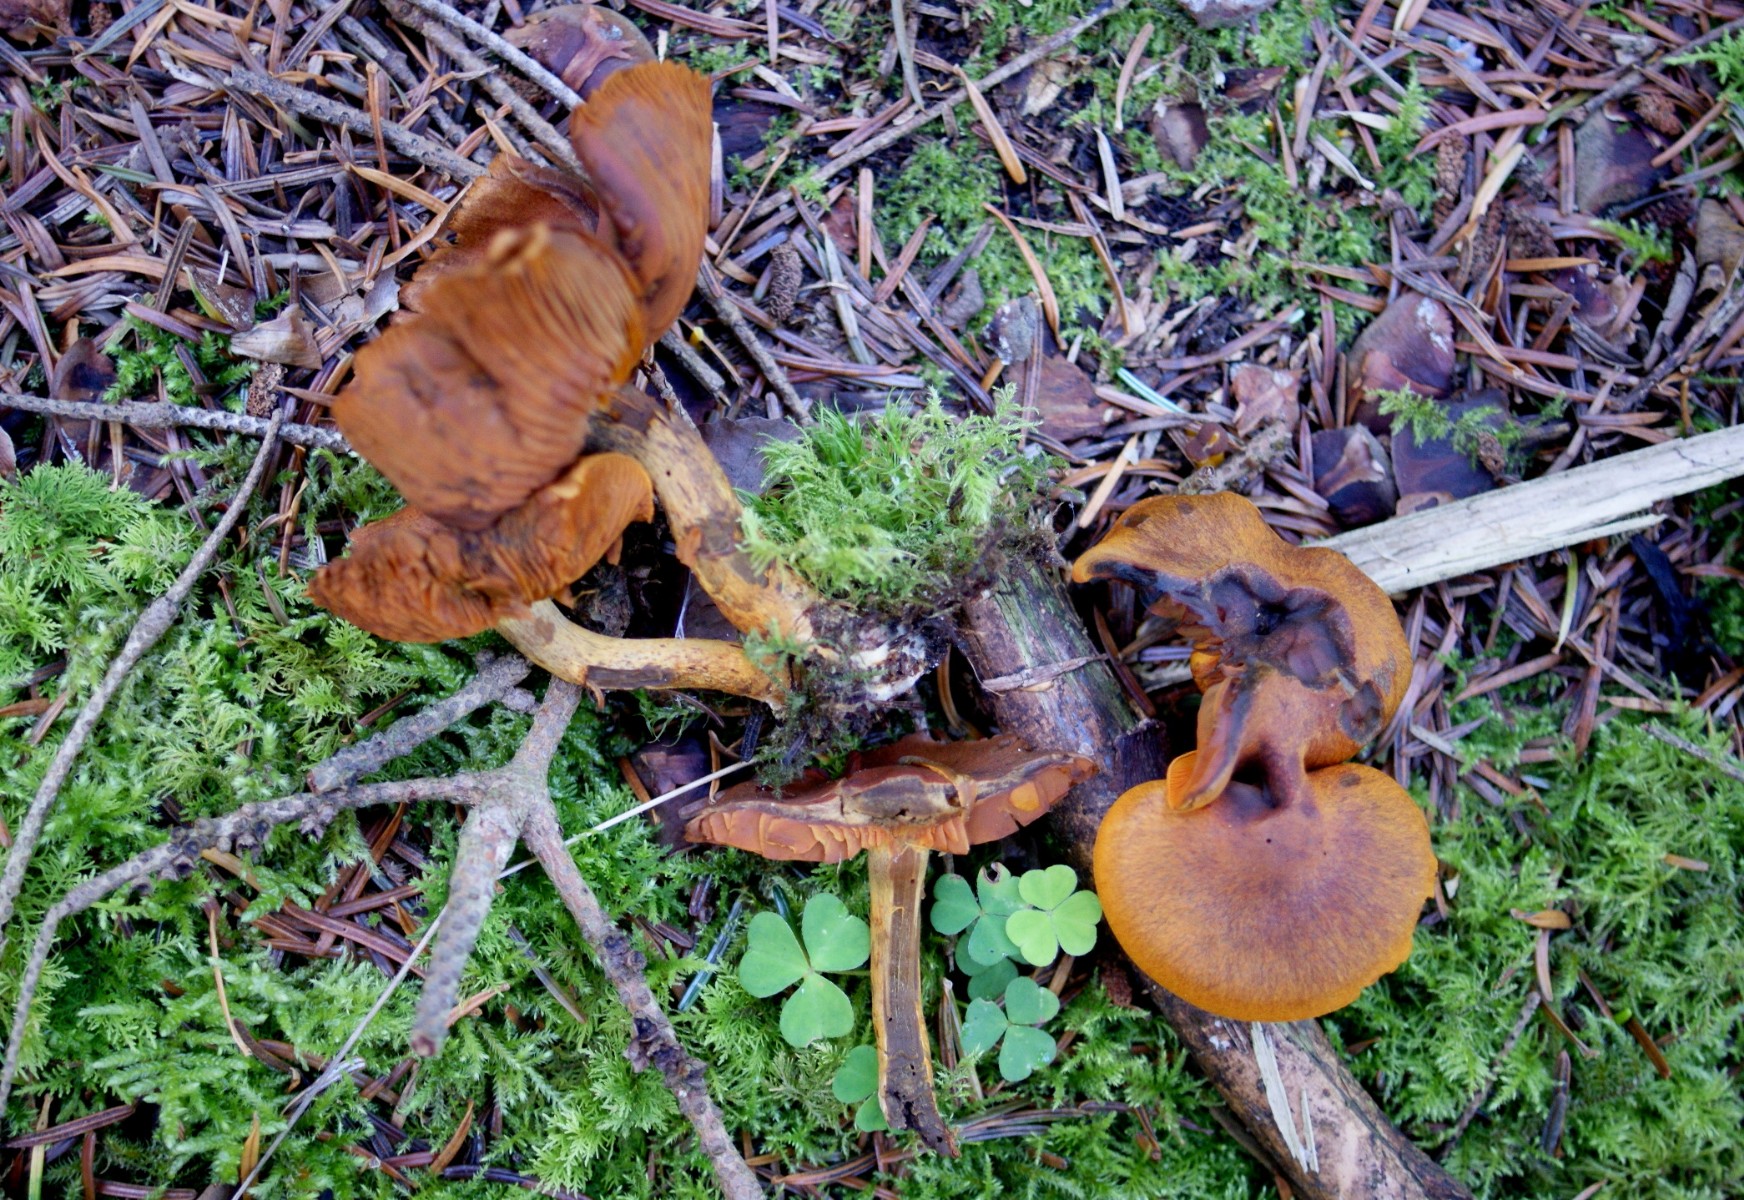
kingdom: Fungi
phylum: Basidiomycota
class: Agaricomycetes
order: Agaricales
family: Cortinariaceae
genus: Cortinarius
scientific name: Cortinarius cinnamomeus
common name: kanel-slørhat
